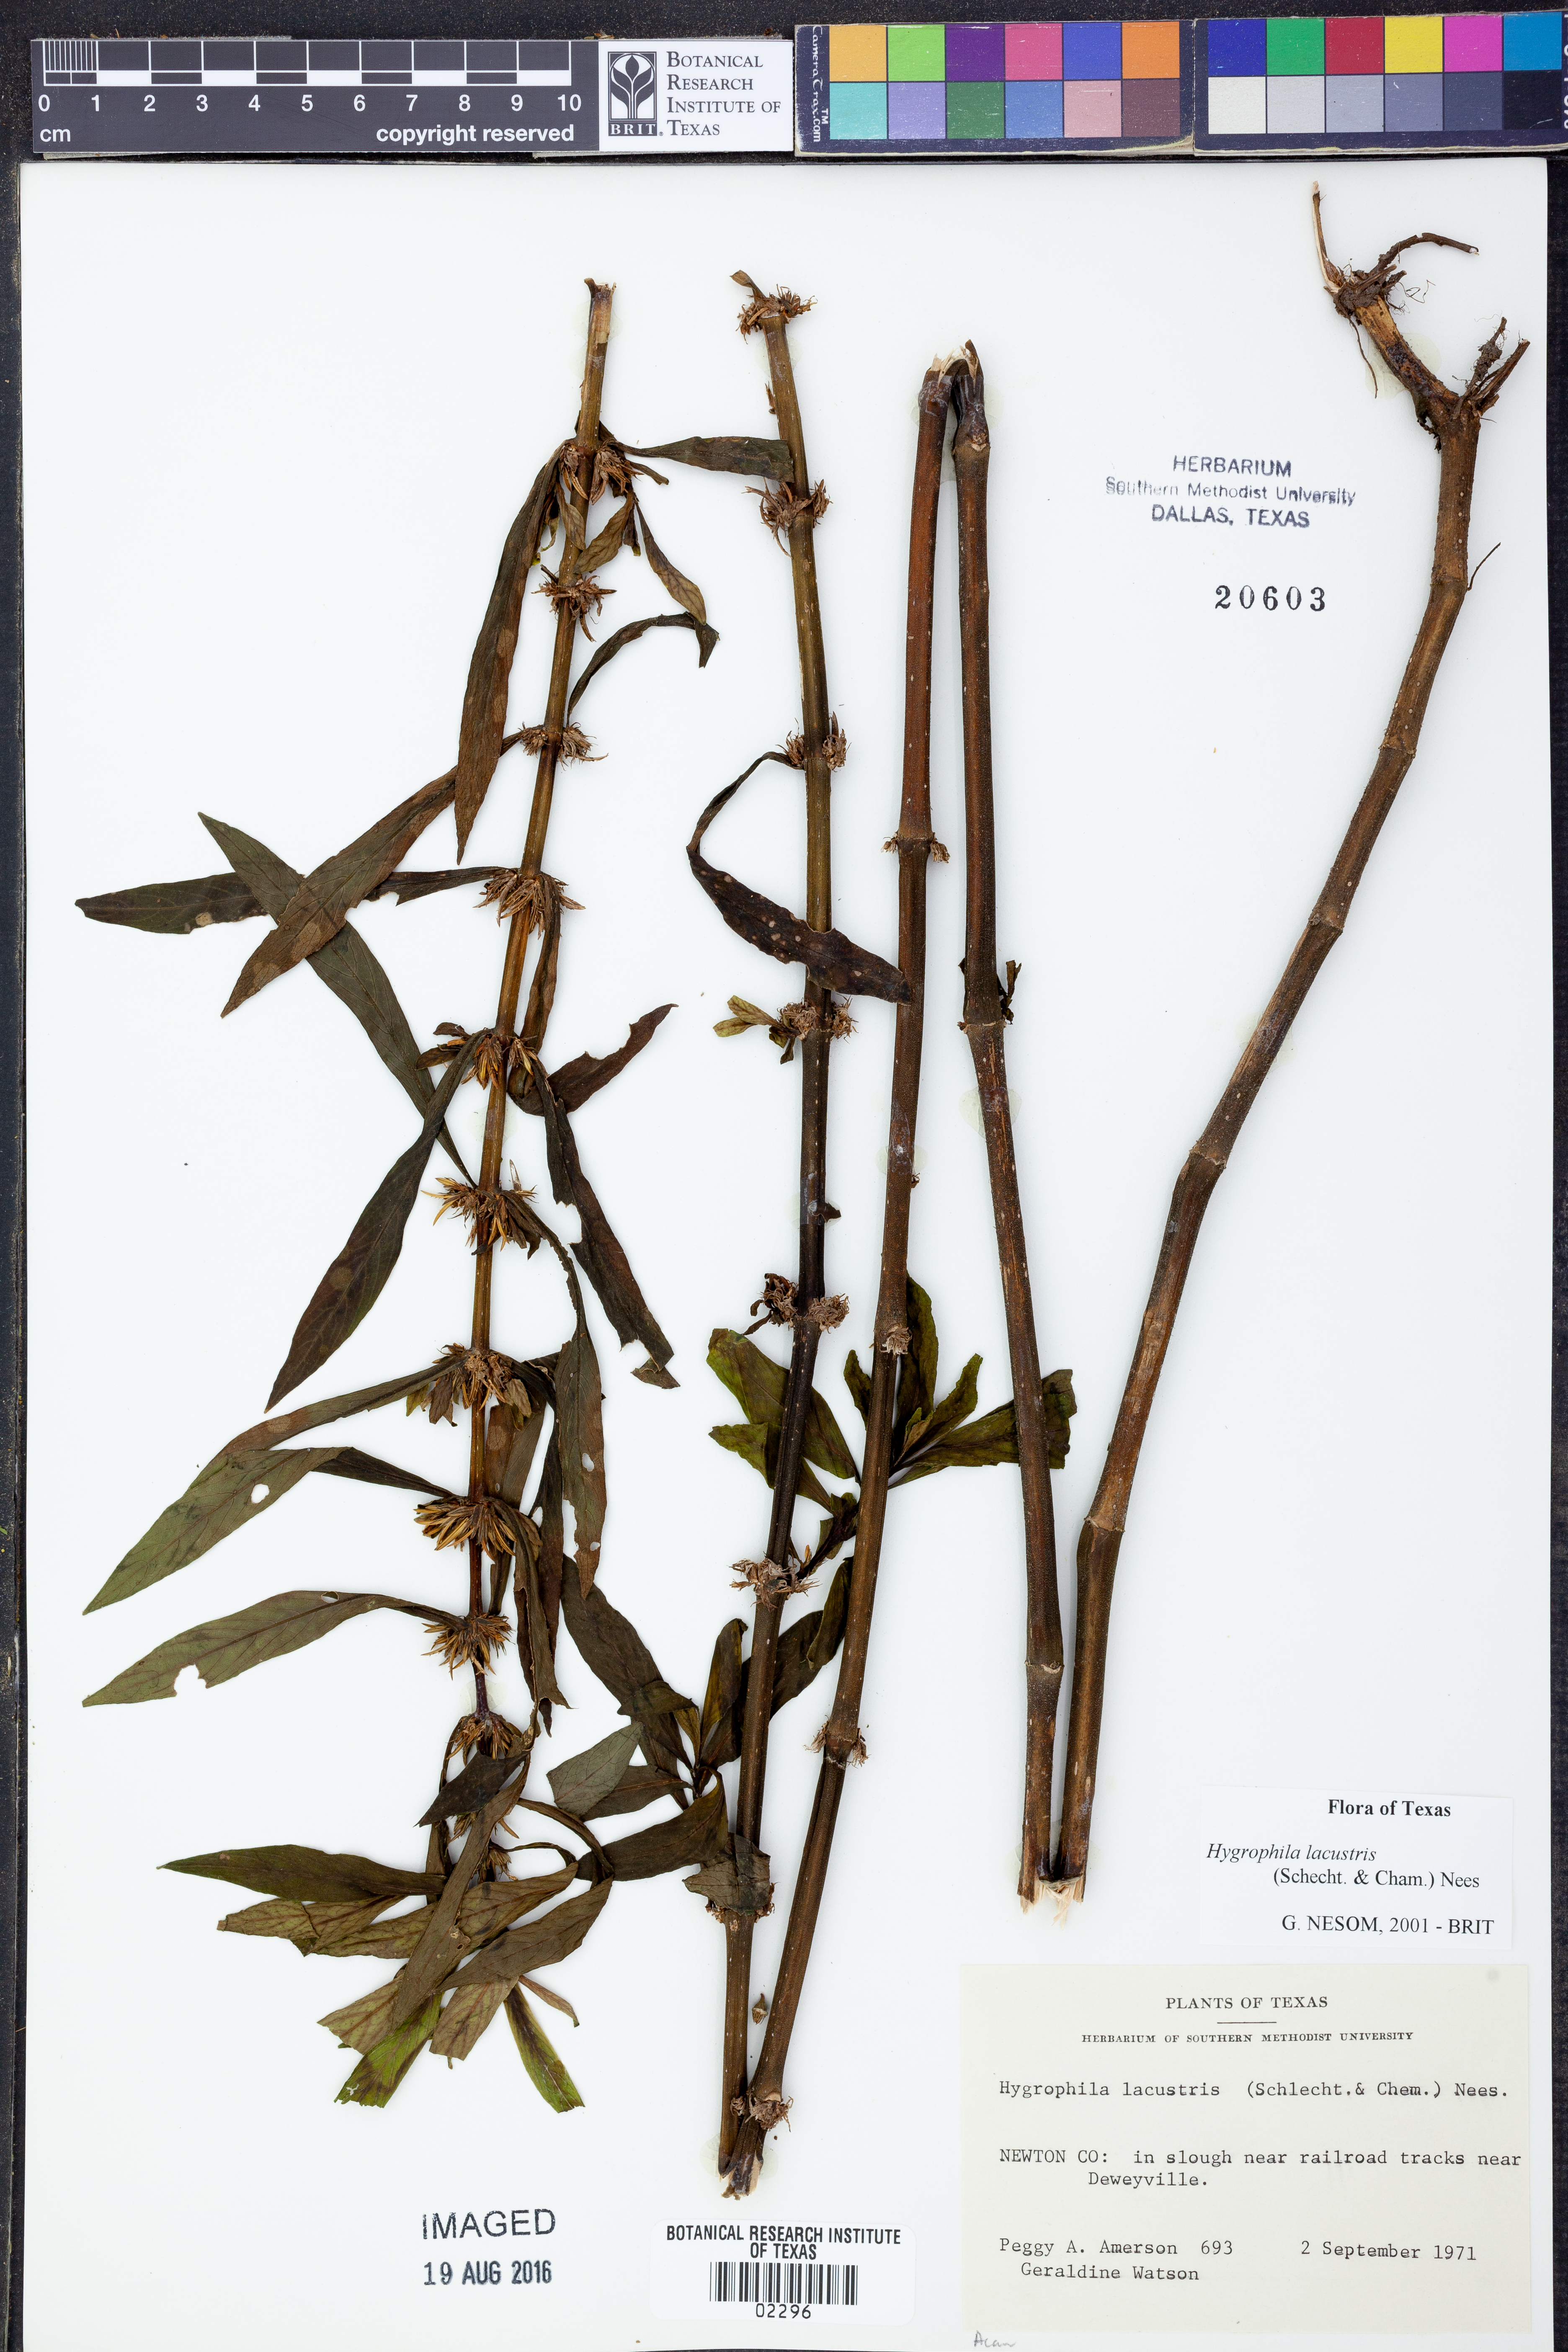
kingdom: Plantae
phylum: Tracheophyta
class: Magnoliopsida
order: Lamiales
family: Acanthaceae
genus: Hygrophila
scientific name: Hygrophila costata
